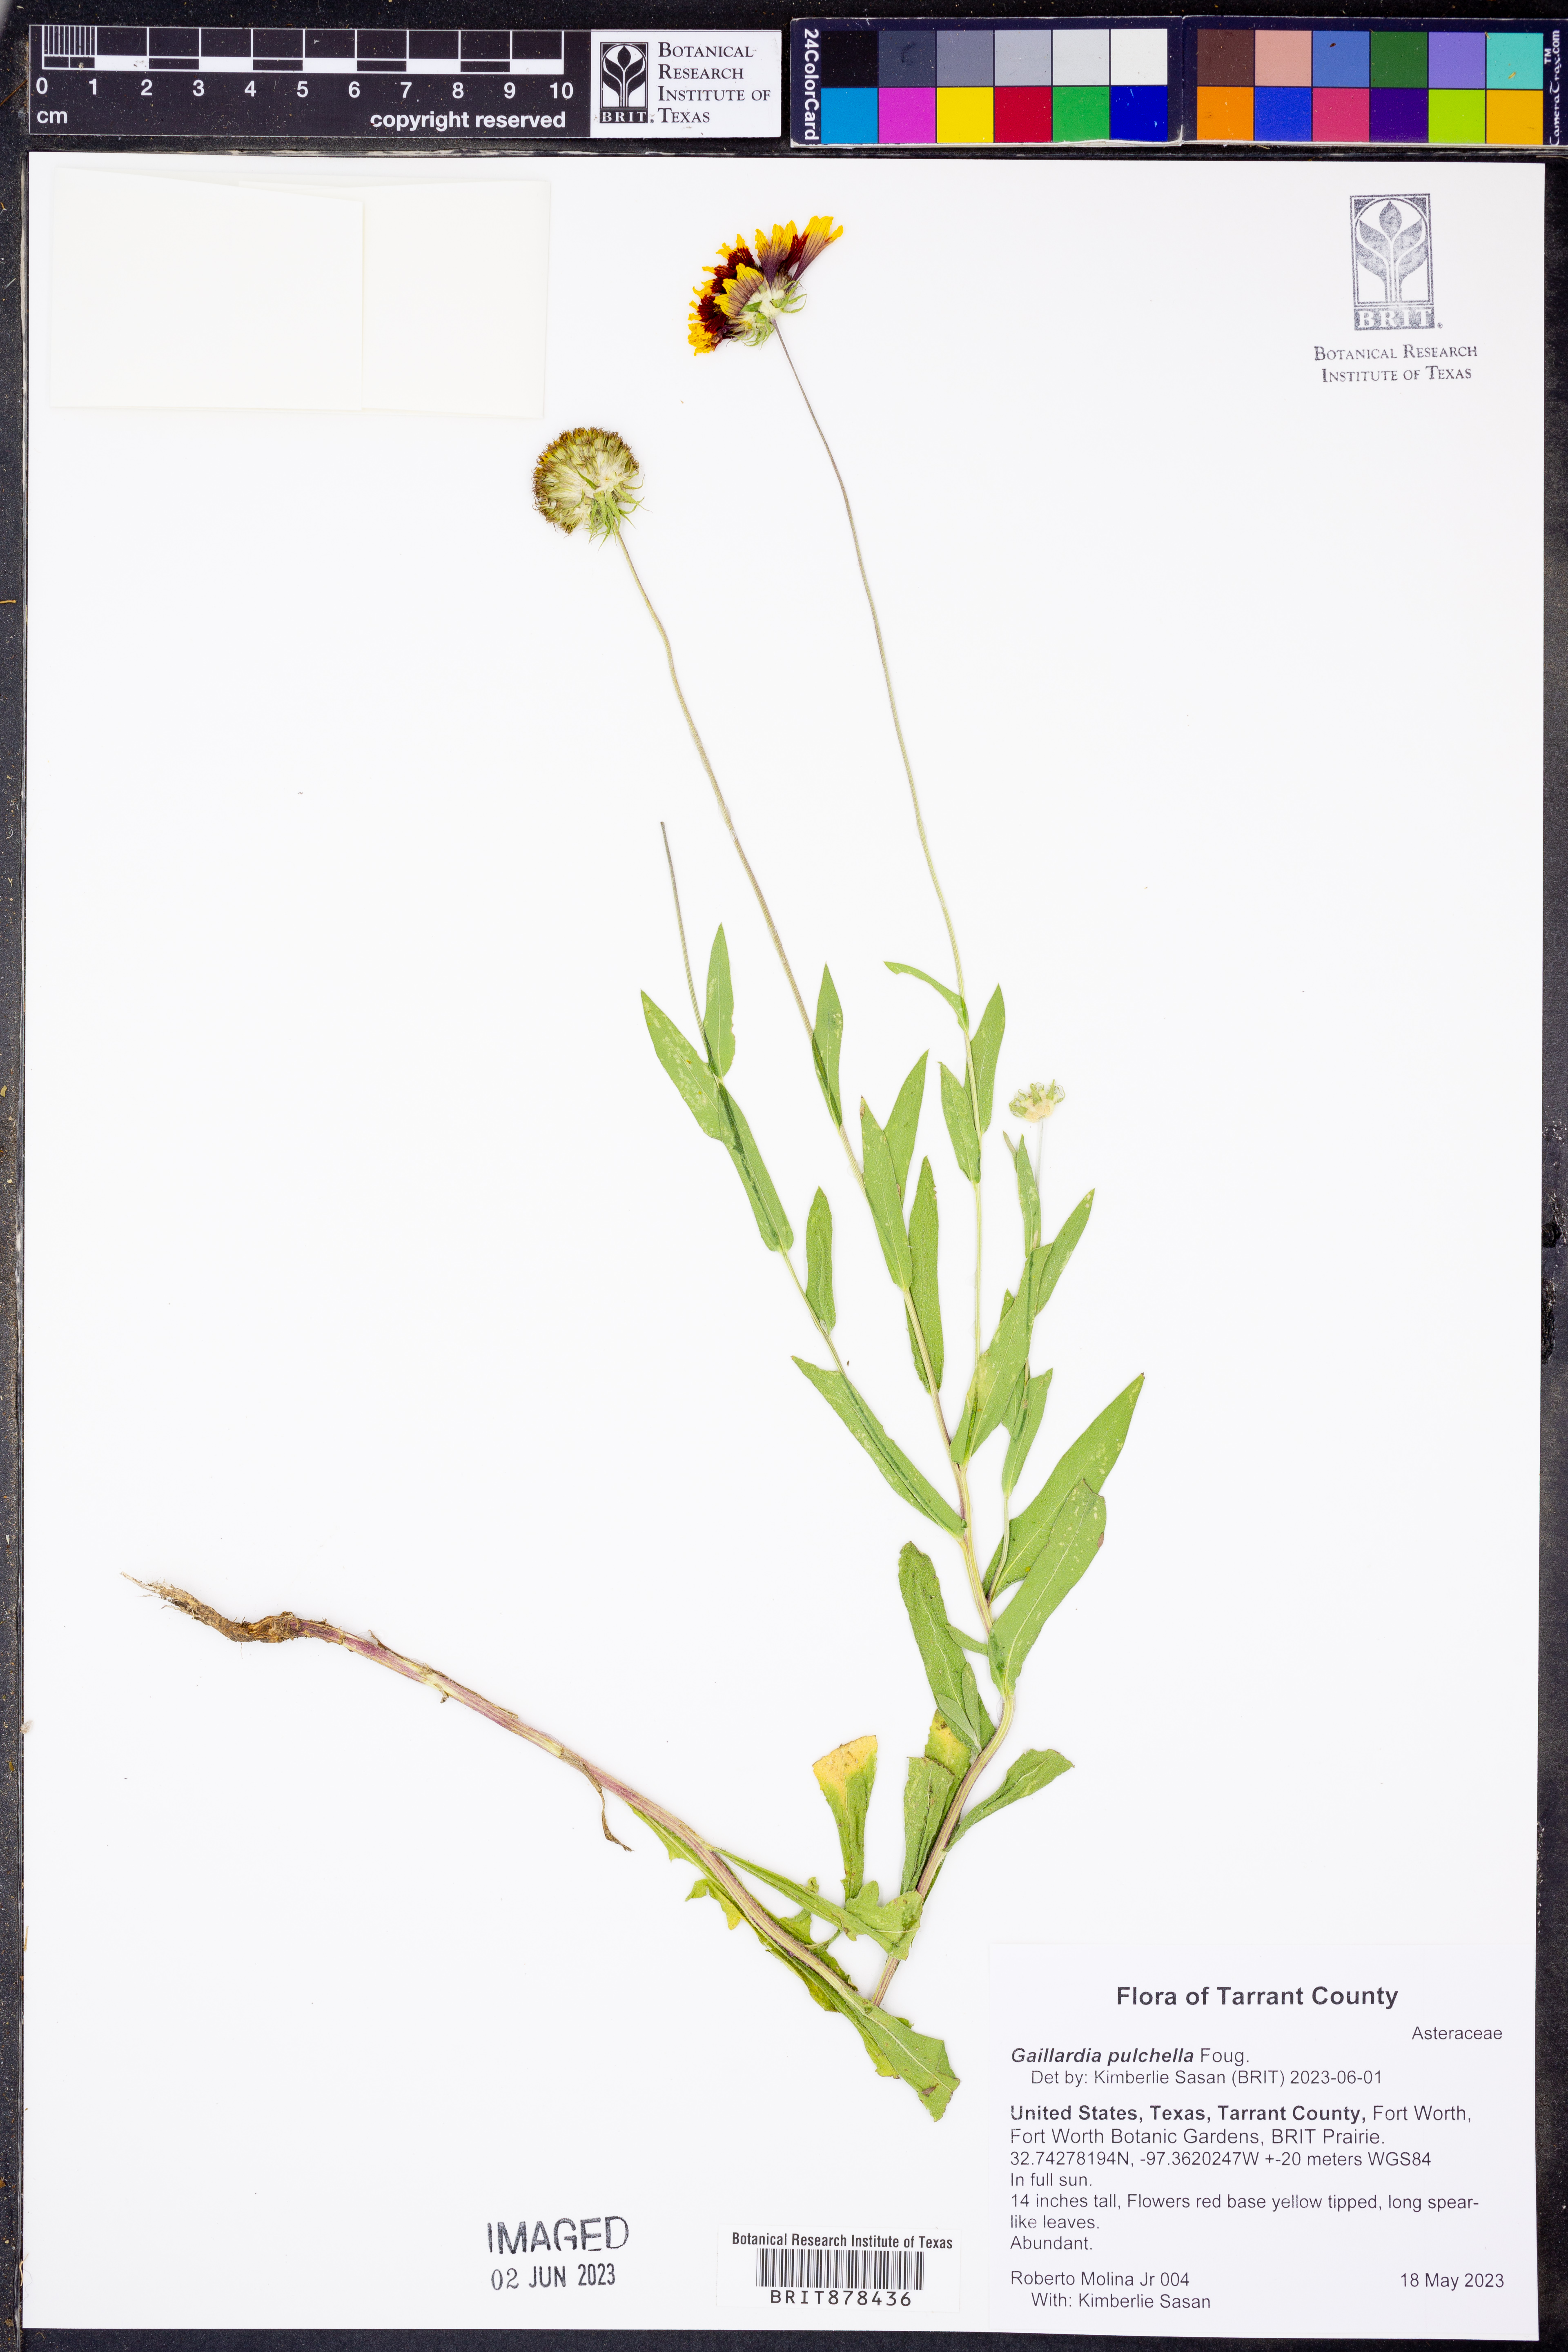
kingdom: Plantae
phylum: Tracheophyta
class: Magnoliopsida
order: Asterales
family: Asteraceae
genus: Gaillardia
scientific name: Gaillardia pulchella
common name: Firewheel
